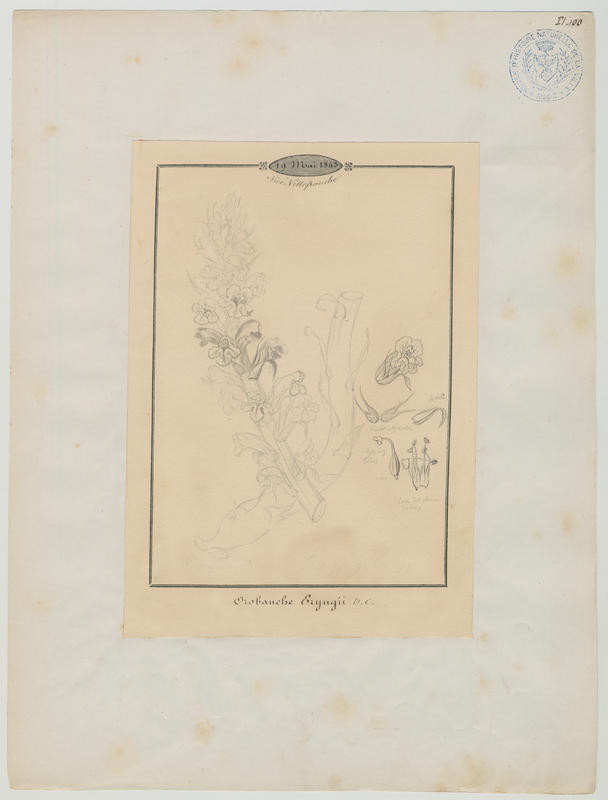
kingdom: Plantae
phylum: Tracheophyta
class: Magnoliopsida
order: Lamiales
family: Orobanchaceae
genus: Orobanche
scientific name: Orobanche amethystea
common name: Amethyst broomrape
